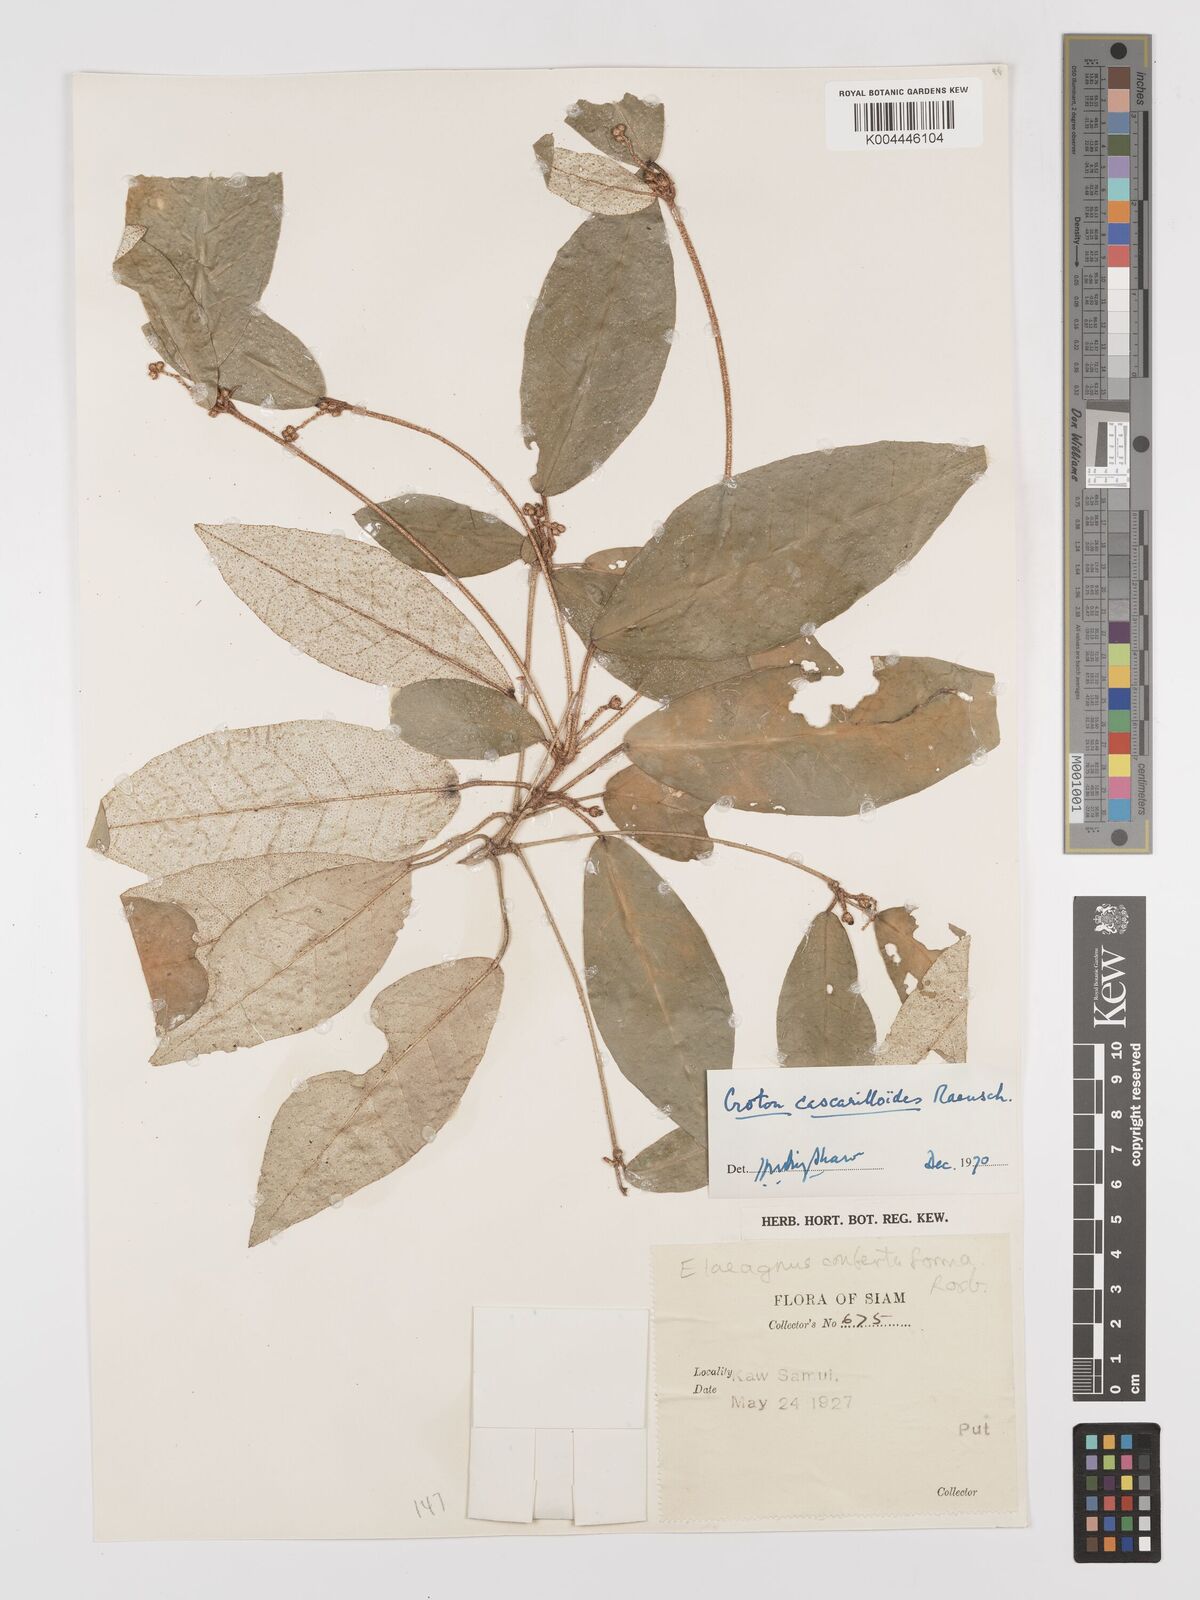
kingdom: Plantae
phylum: Tracheophyta
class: Magnoliopsida
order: Malpighiales
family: Euphorbiaceae
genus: Croton
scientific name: Croton cascarilloides
